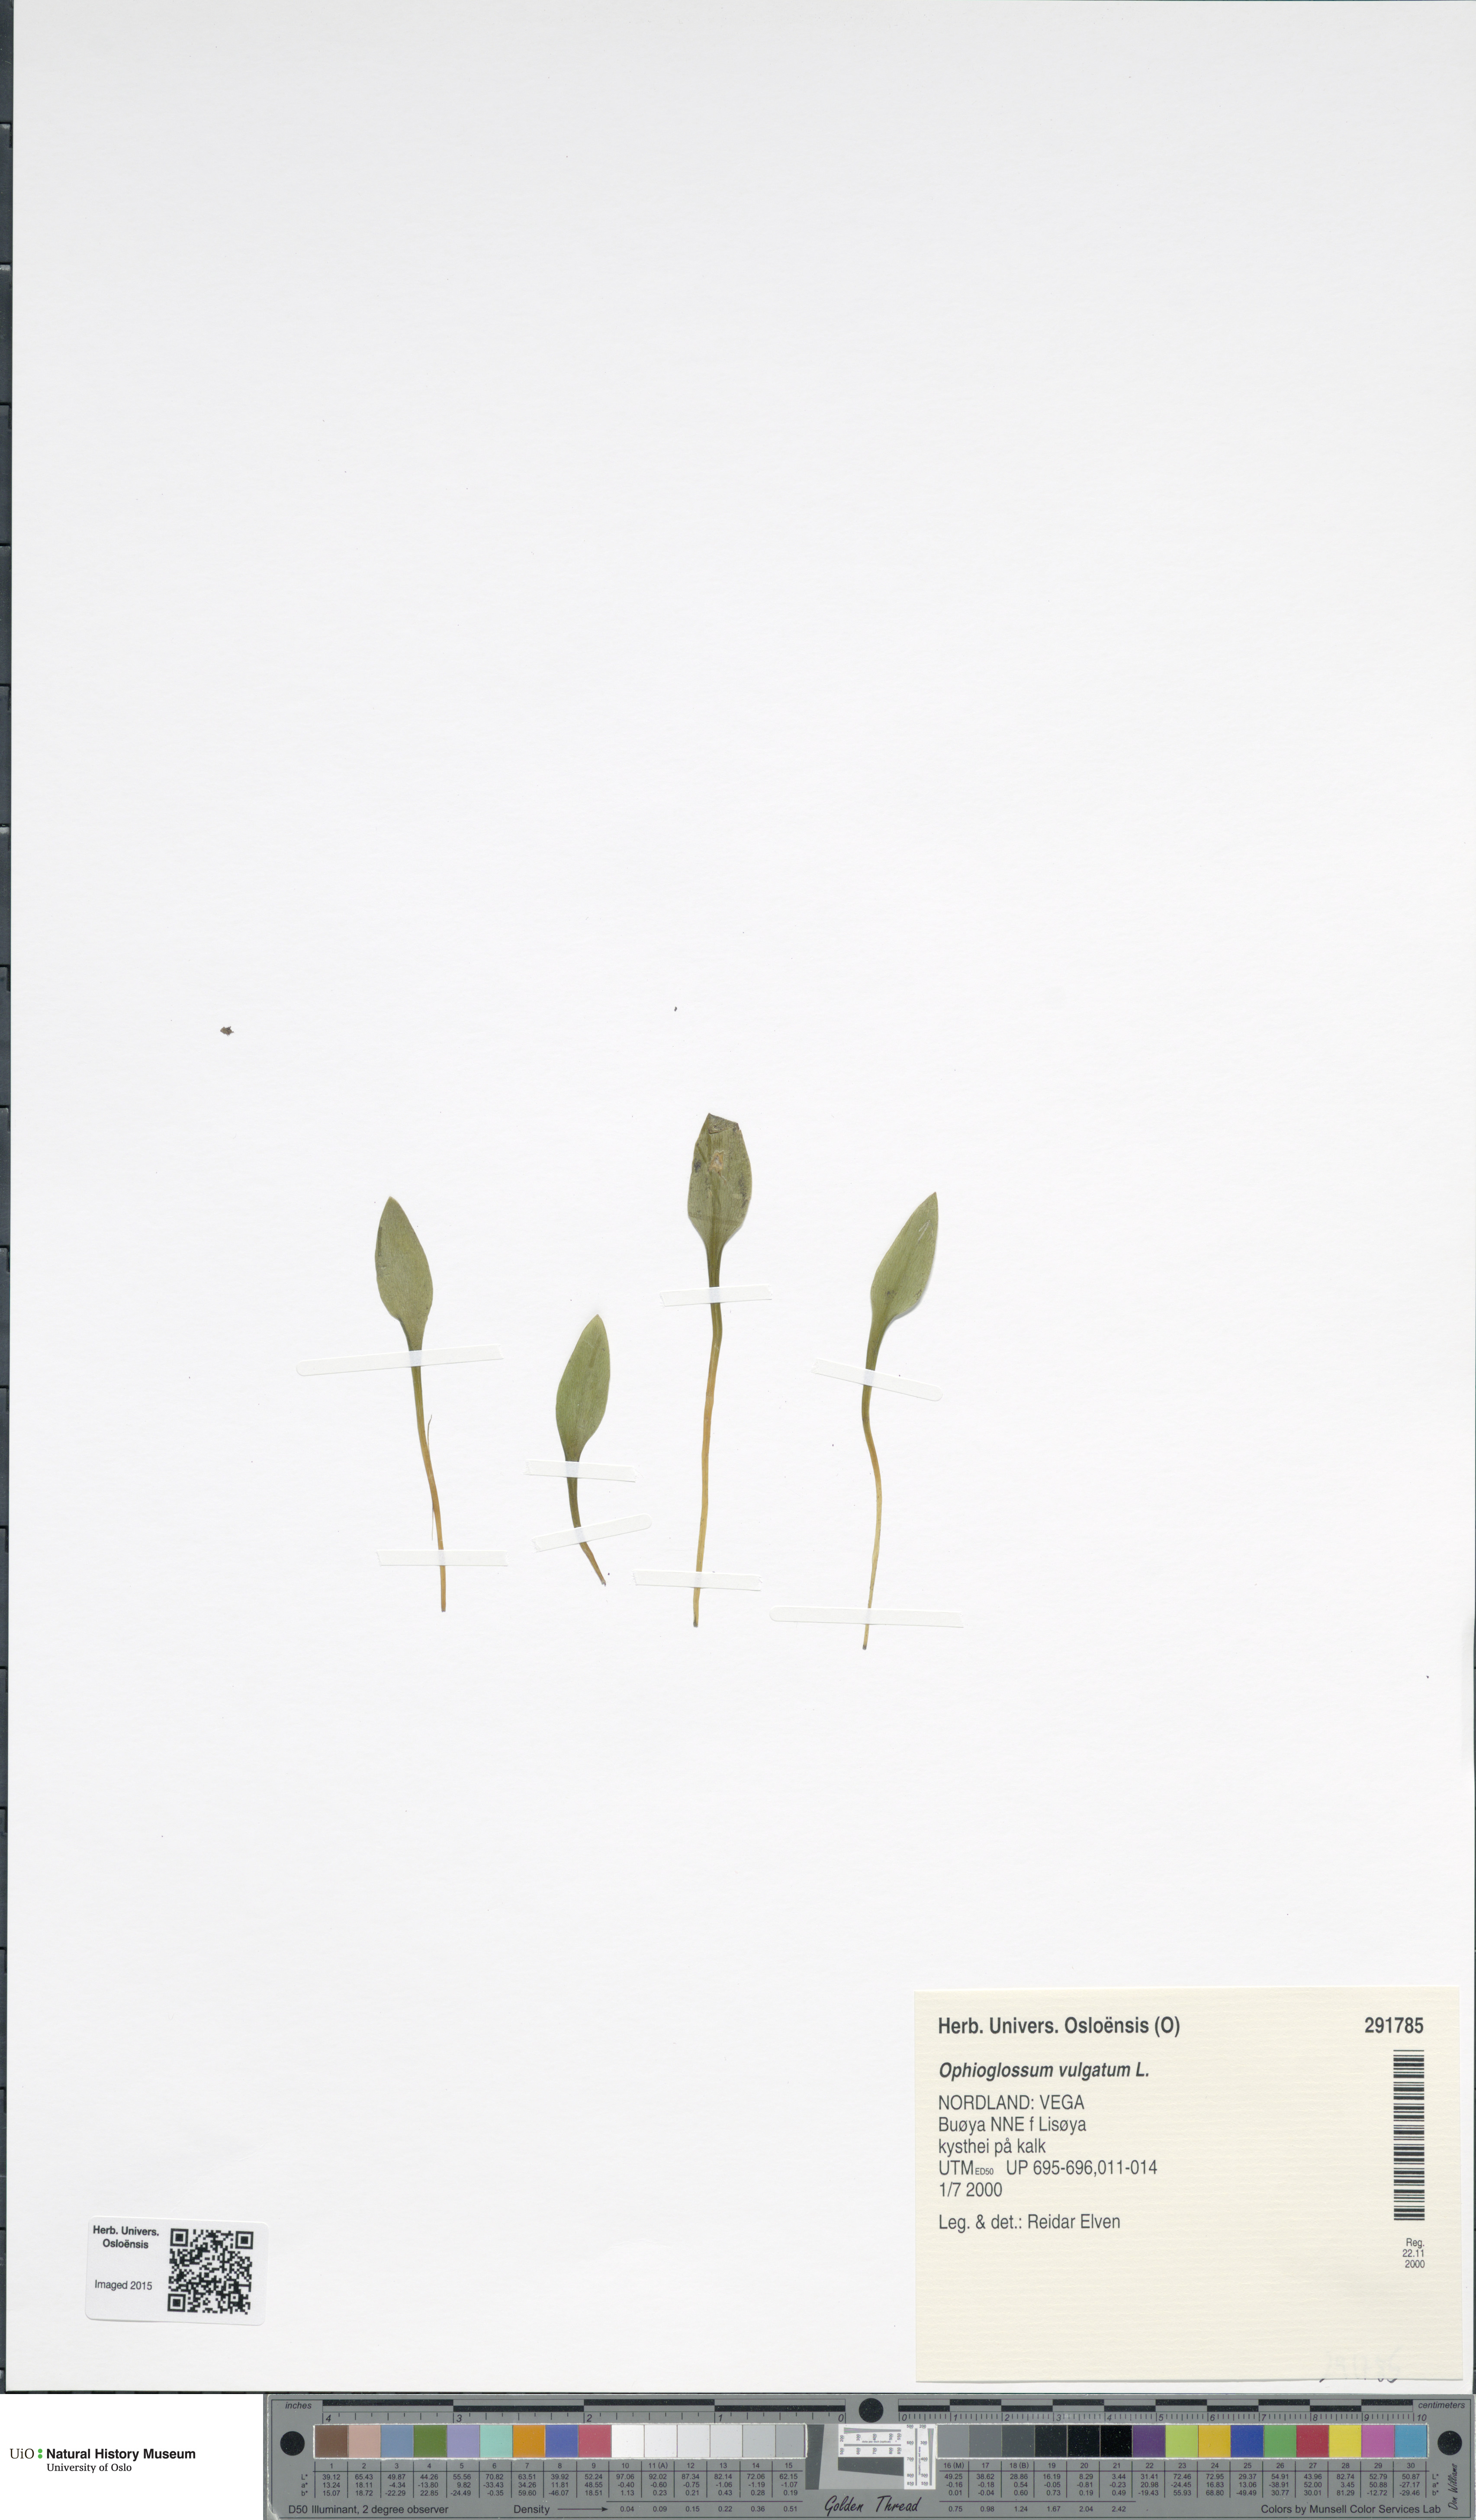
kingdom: Plantae
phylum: Tracheophyta
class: Polypodiopsida
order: Ophioglossales
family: Ophioglossaceae
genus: Ophioglossum
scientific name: Ophioglossum vulgatum
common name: Adder's-tongue
